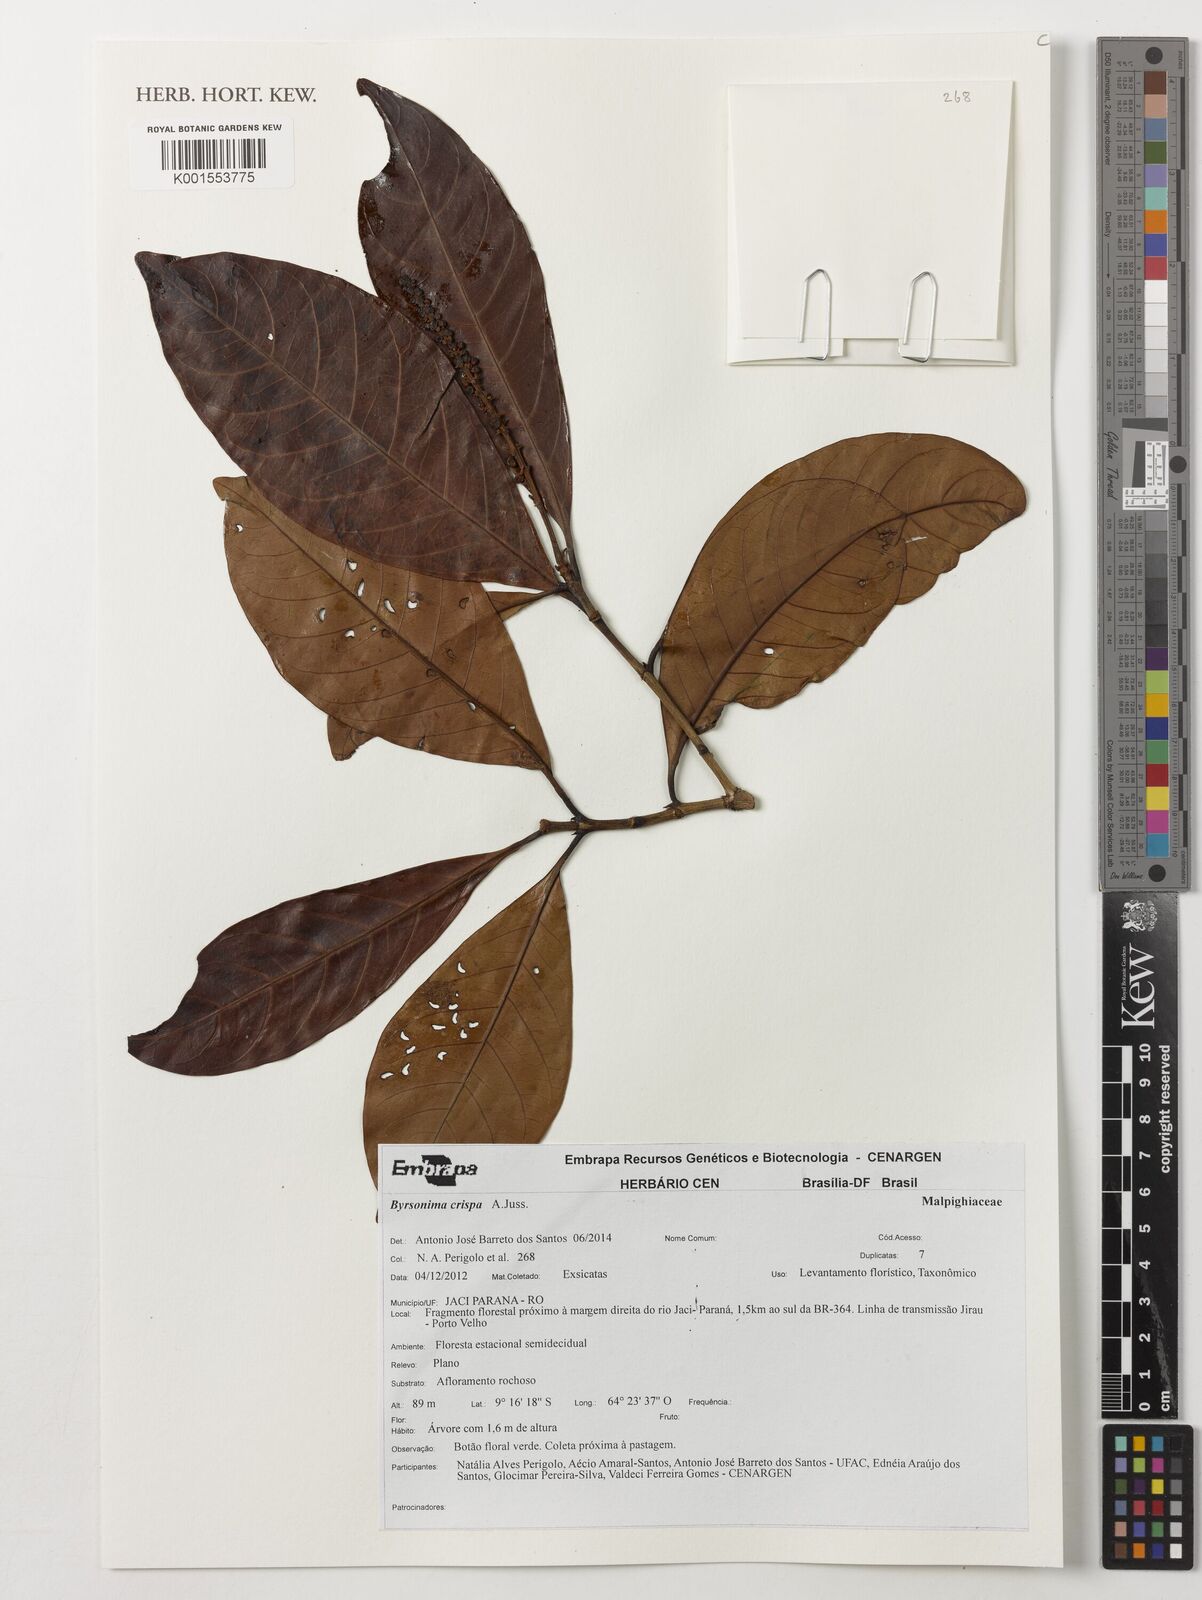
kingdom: Plantae
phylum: Tracheophyta
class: Magnoliopsida
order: Myrtales
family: Melastomataceae
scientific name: Melastomataceae
